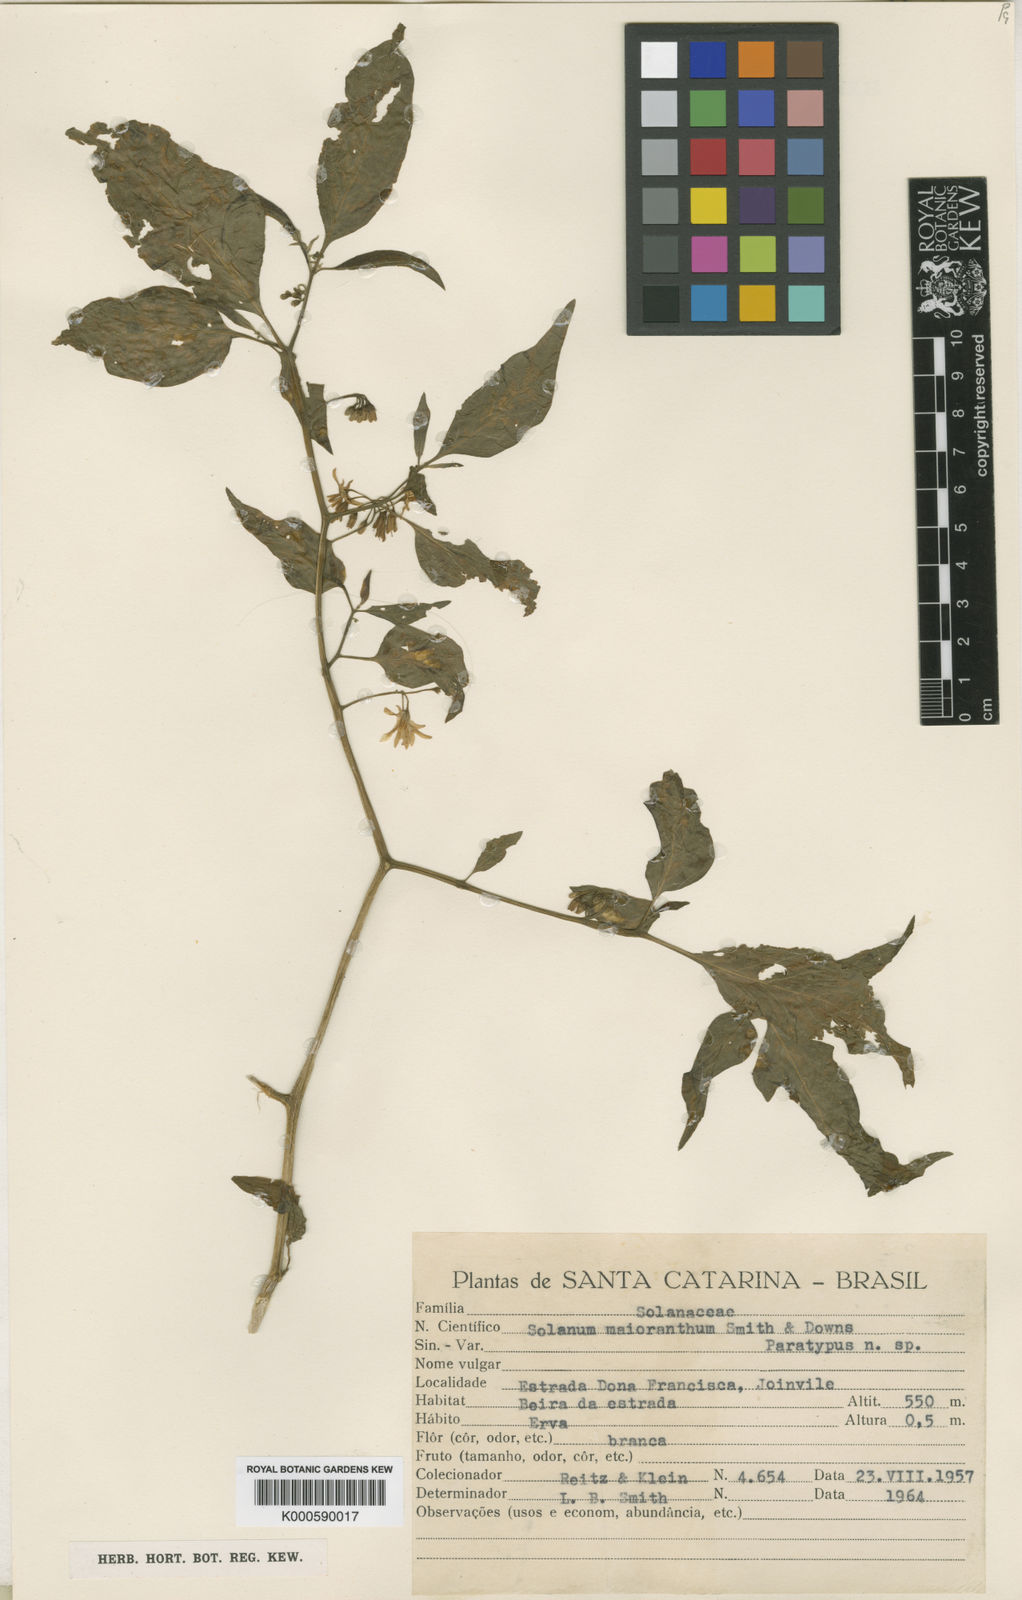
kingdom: Plantae
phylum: Tracheophyta
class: Magnoliopsida
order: Solanales
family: Solanaceae
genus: Solanum
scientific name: Solanum
